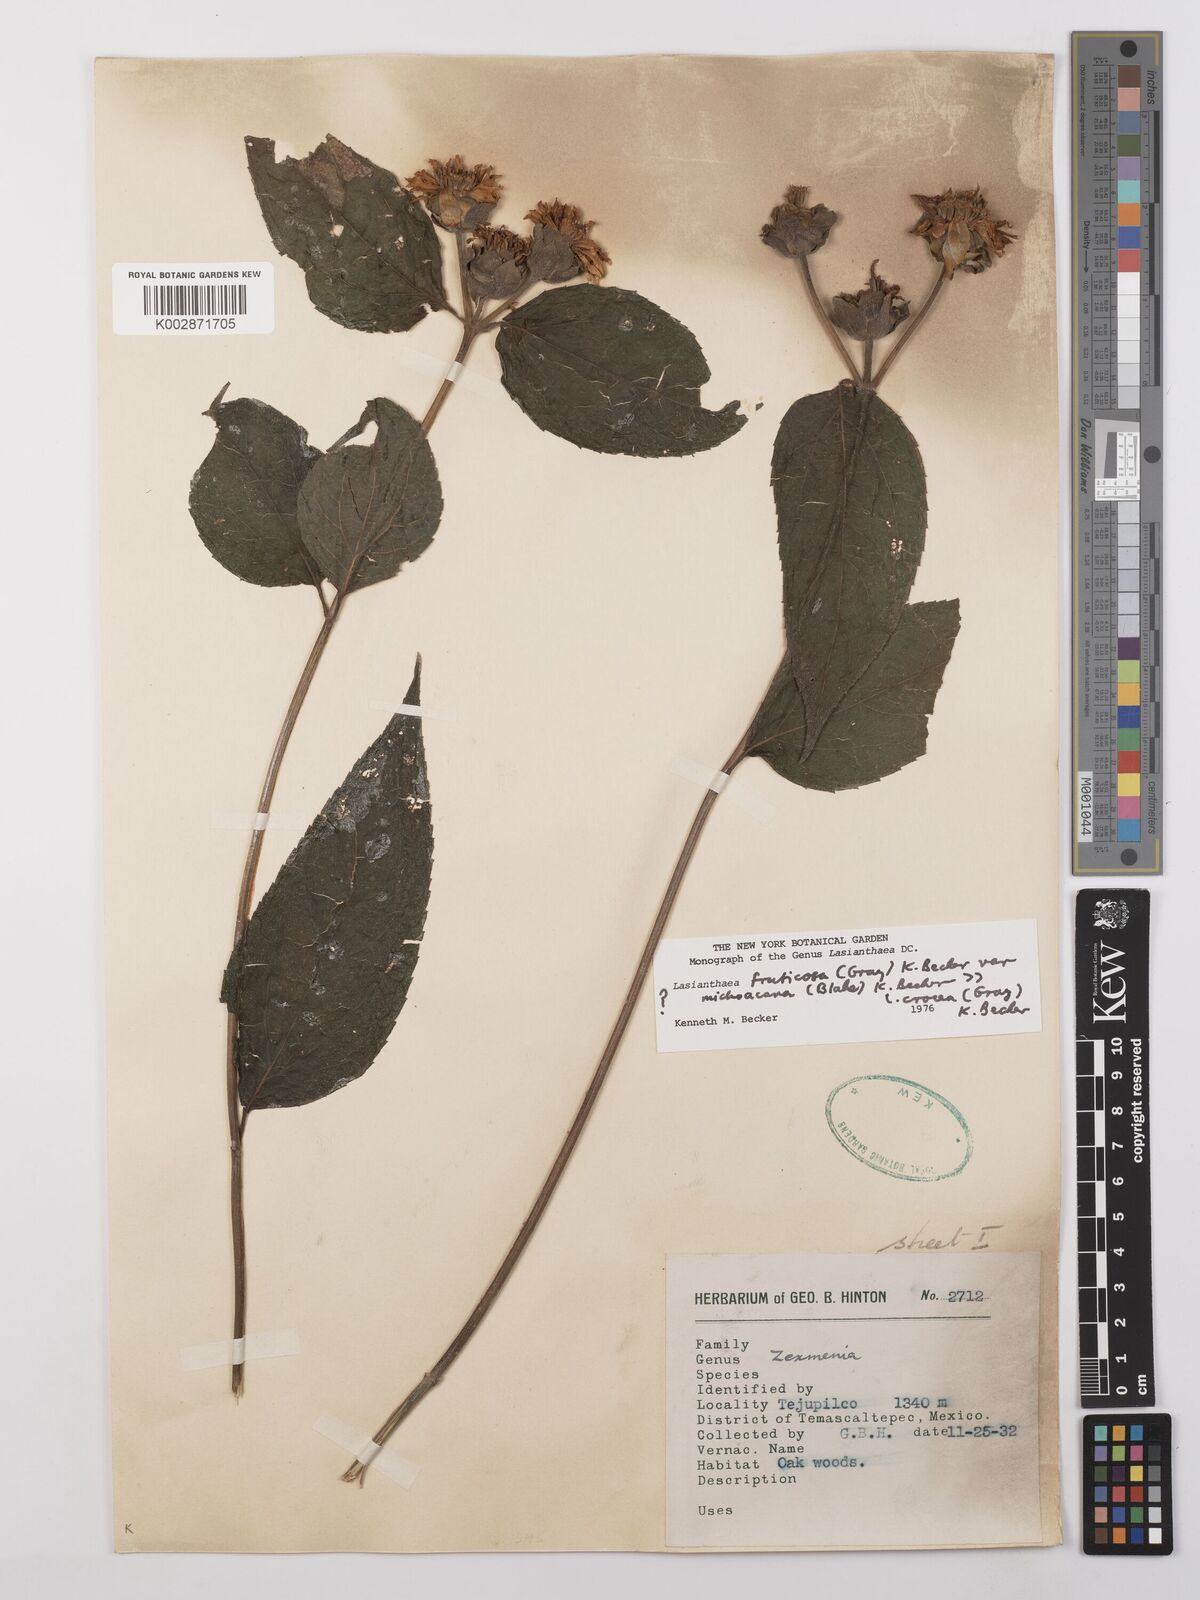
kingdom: Plantae
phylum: Tracheophyta
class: Magnoliopsida
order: Asterales
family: Asteraceae
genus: Lasianthaea
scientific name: Lasianthaea fruticosa
